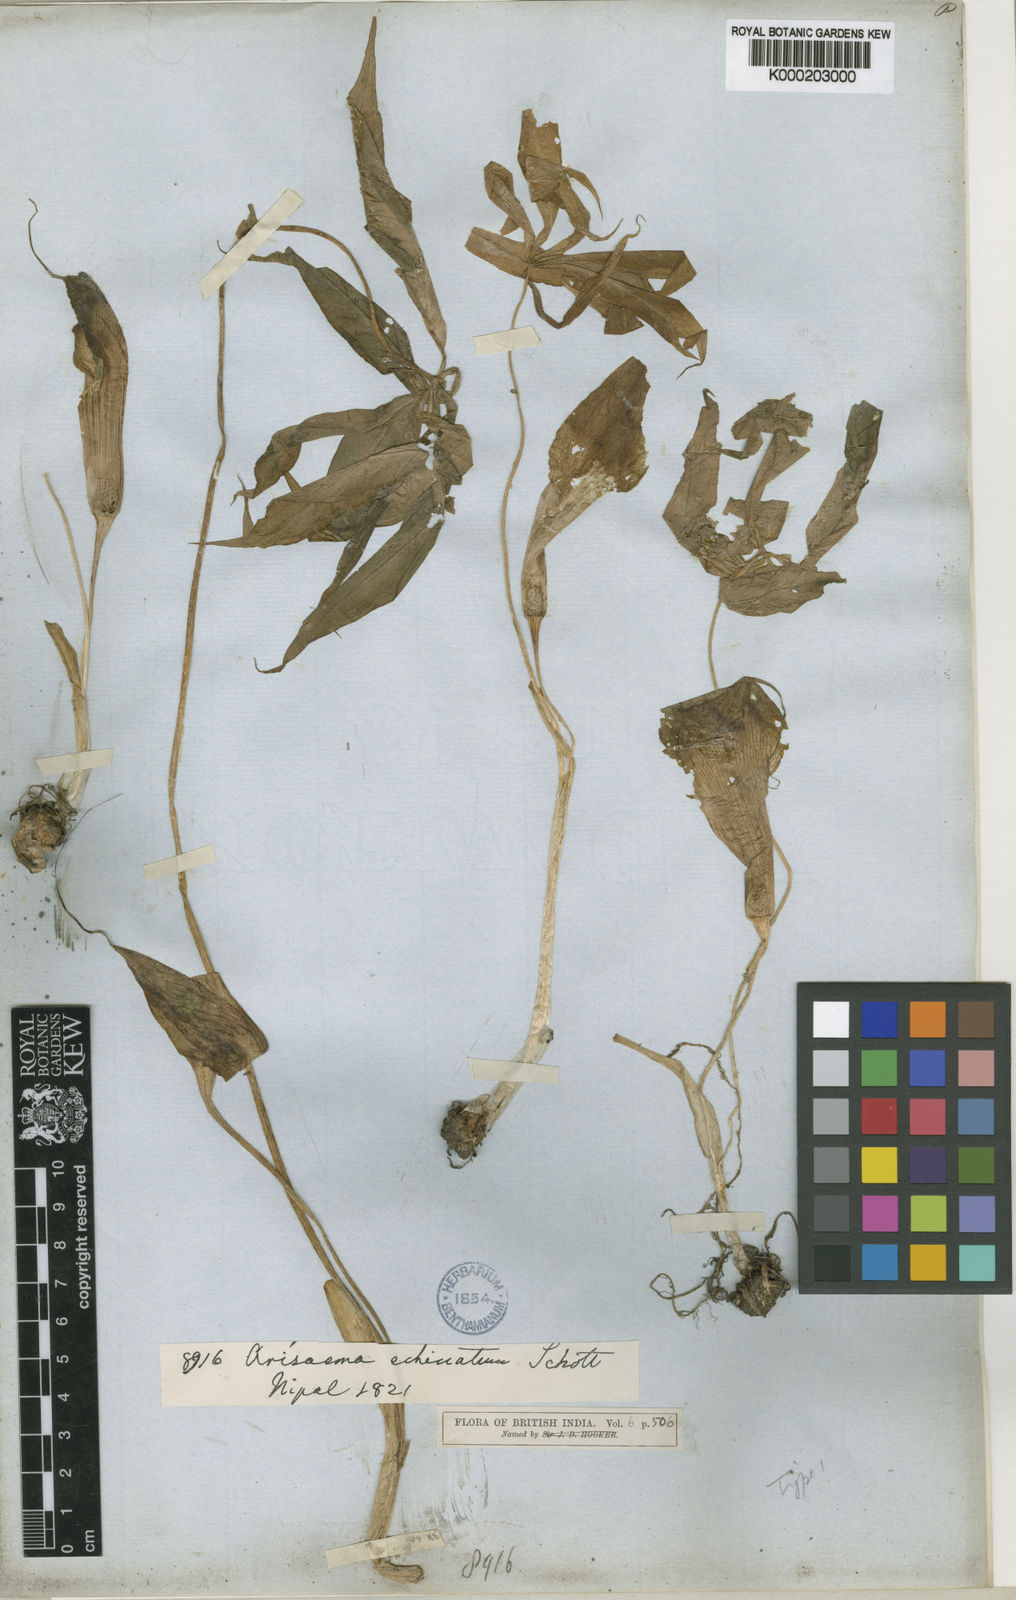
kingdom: Plantae
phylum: Tracheophyta
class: Liliopsida
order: Alismatales
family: Araceae
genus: Arisaema
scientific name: Arisaema echinatum
